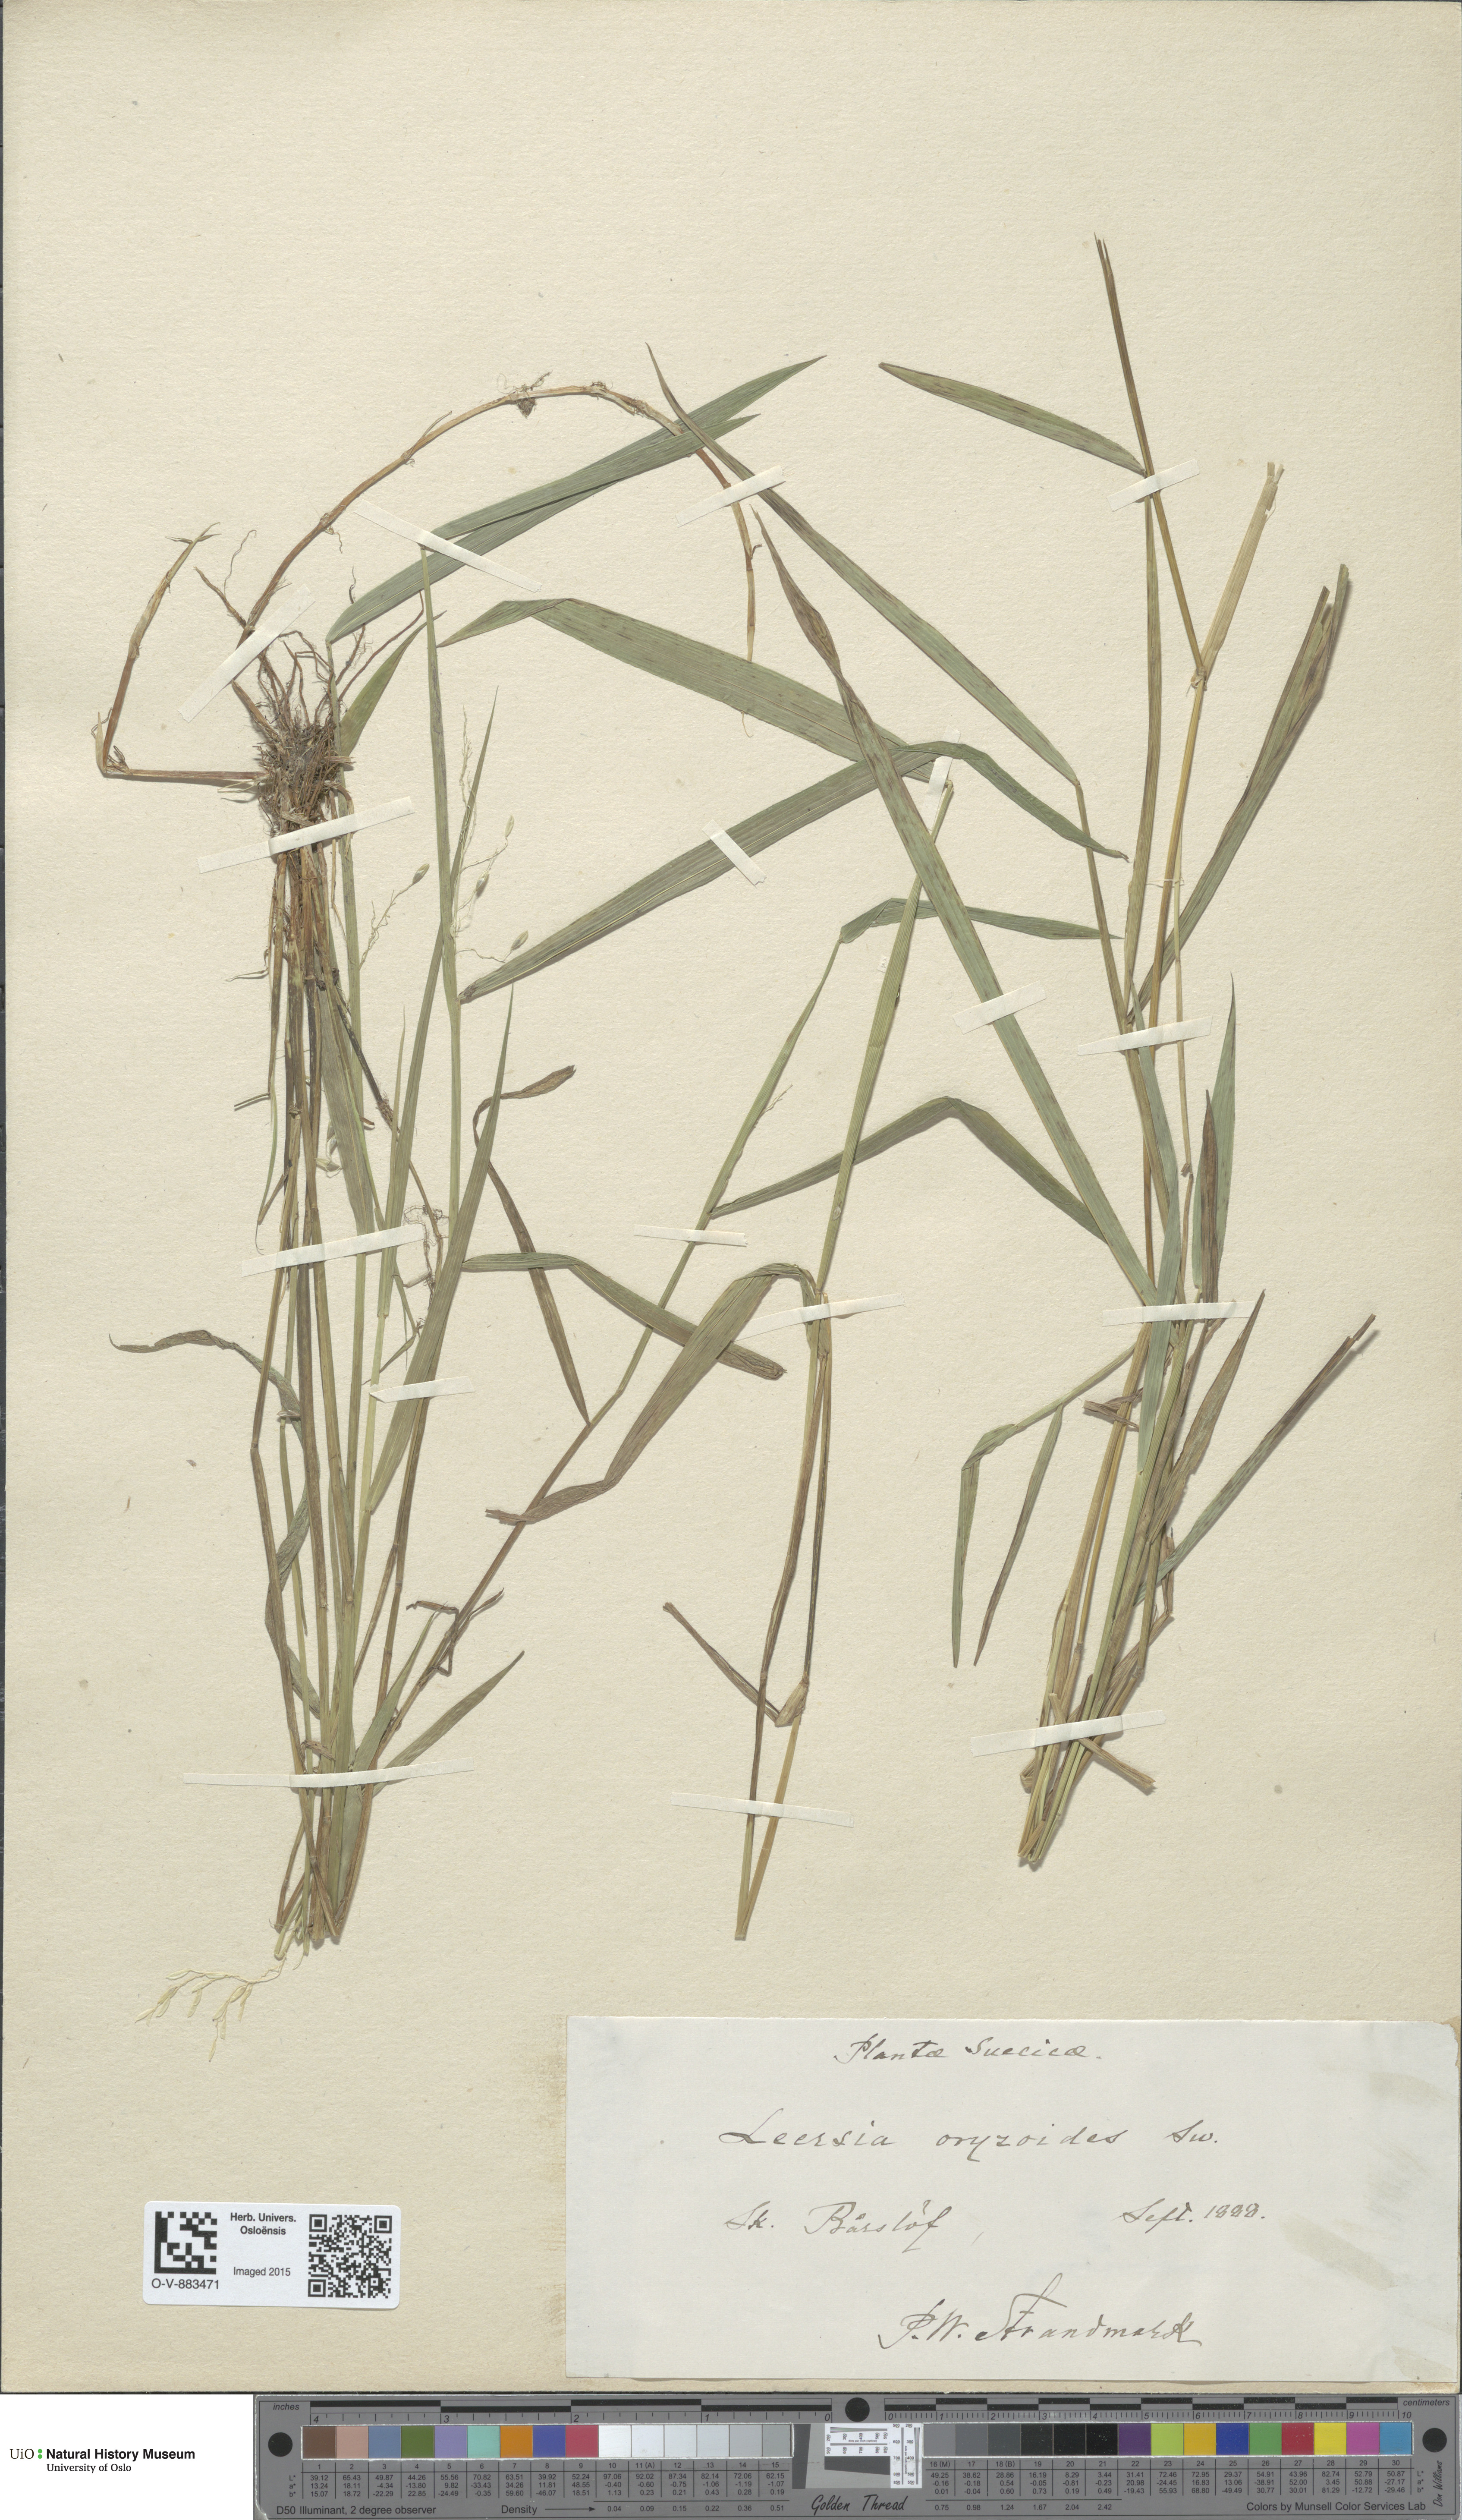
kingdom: Plantae
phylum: Tracheophyta
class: Liliopsida
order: Poales
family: Poaceae
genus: Leersia
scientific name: Leersia oryzoides
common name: Cut-grass
